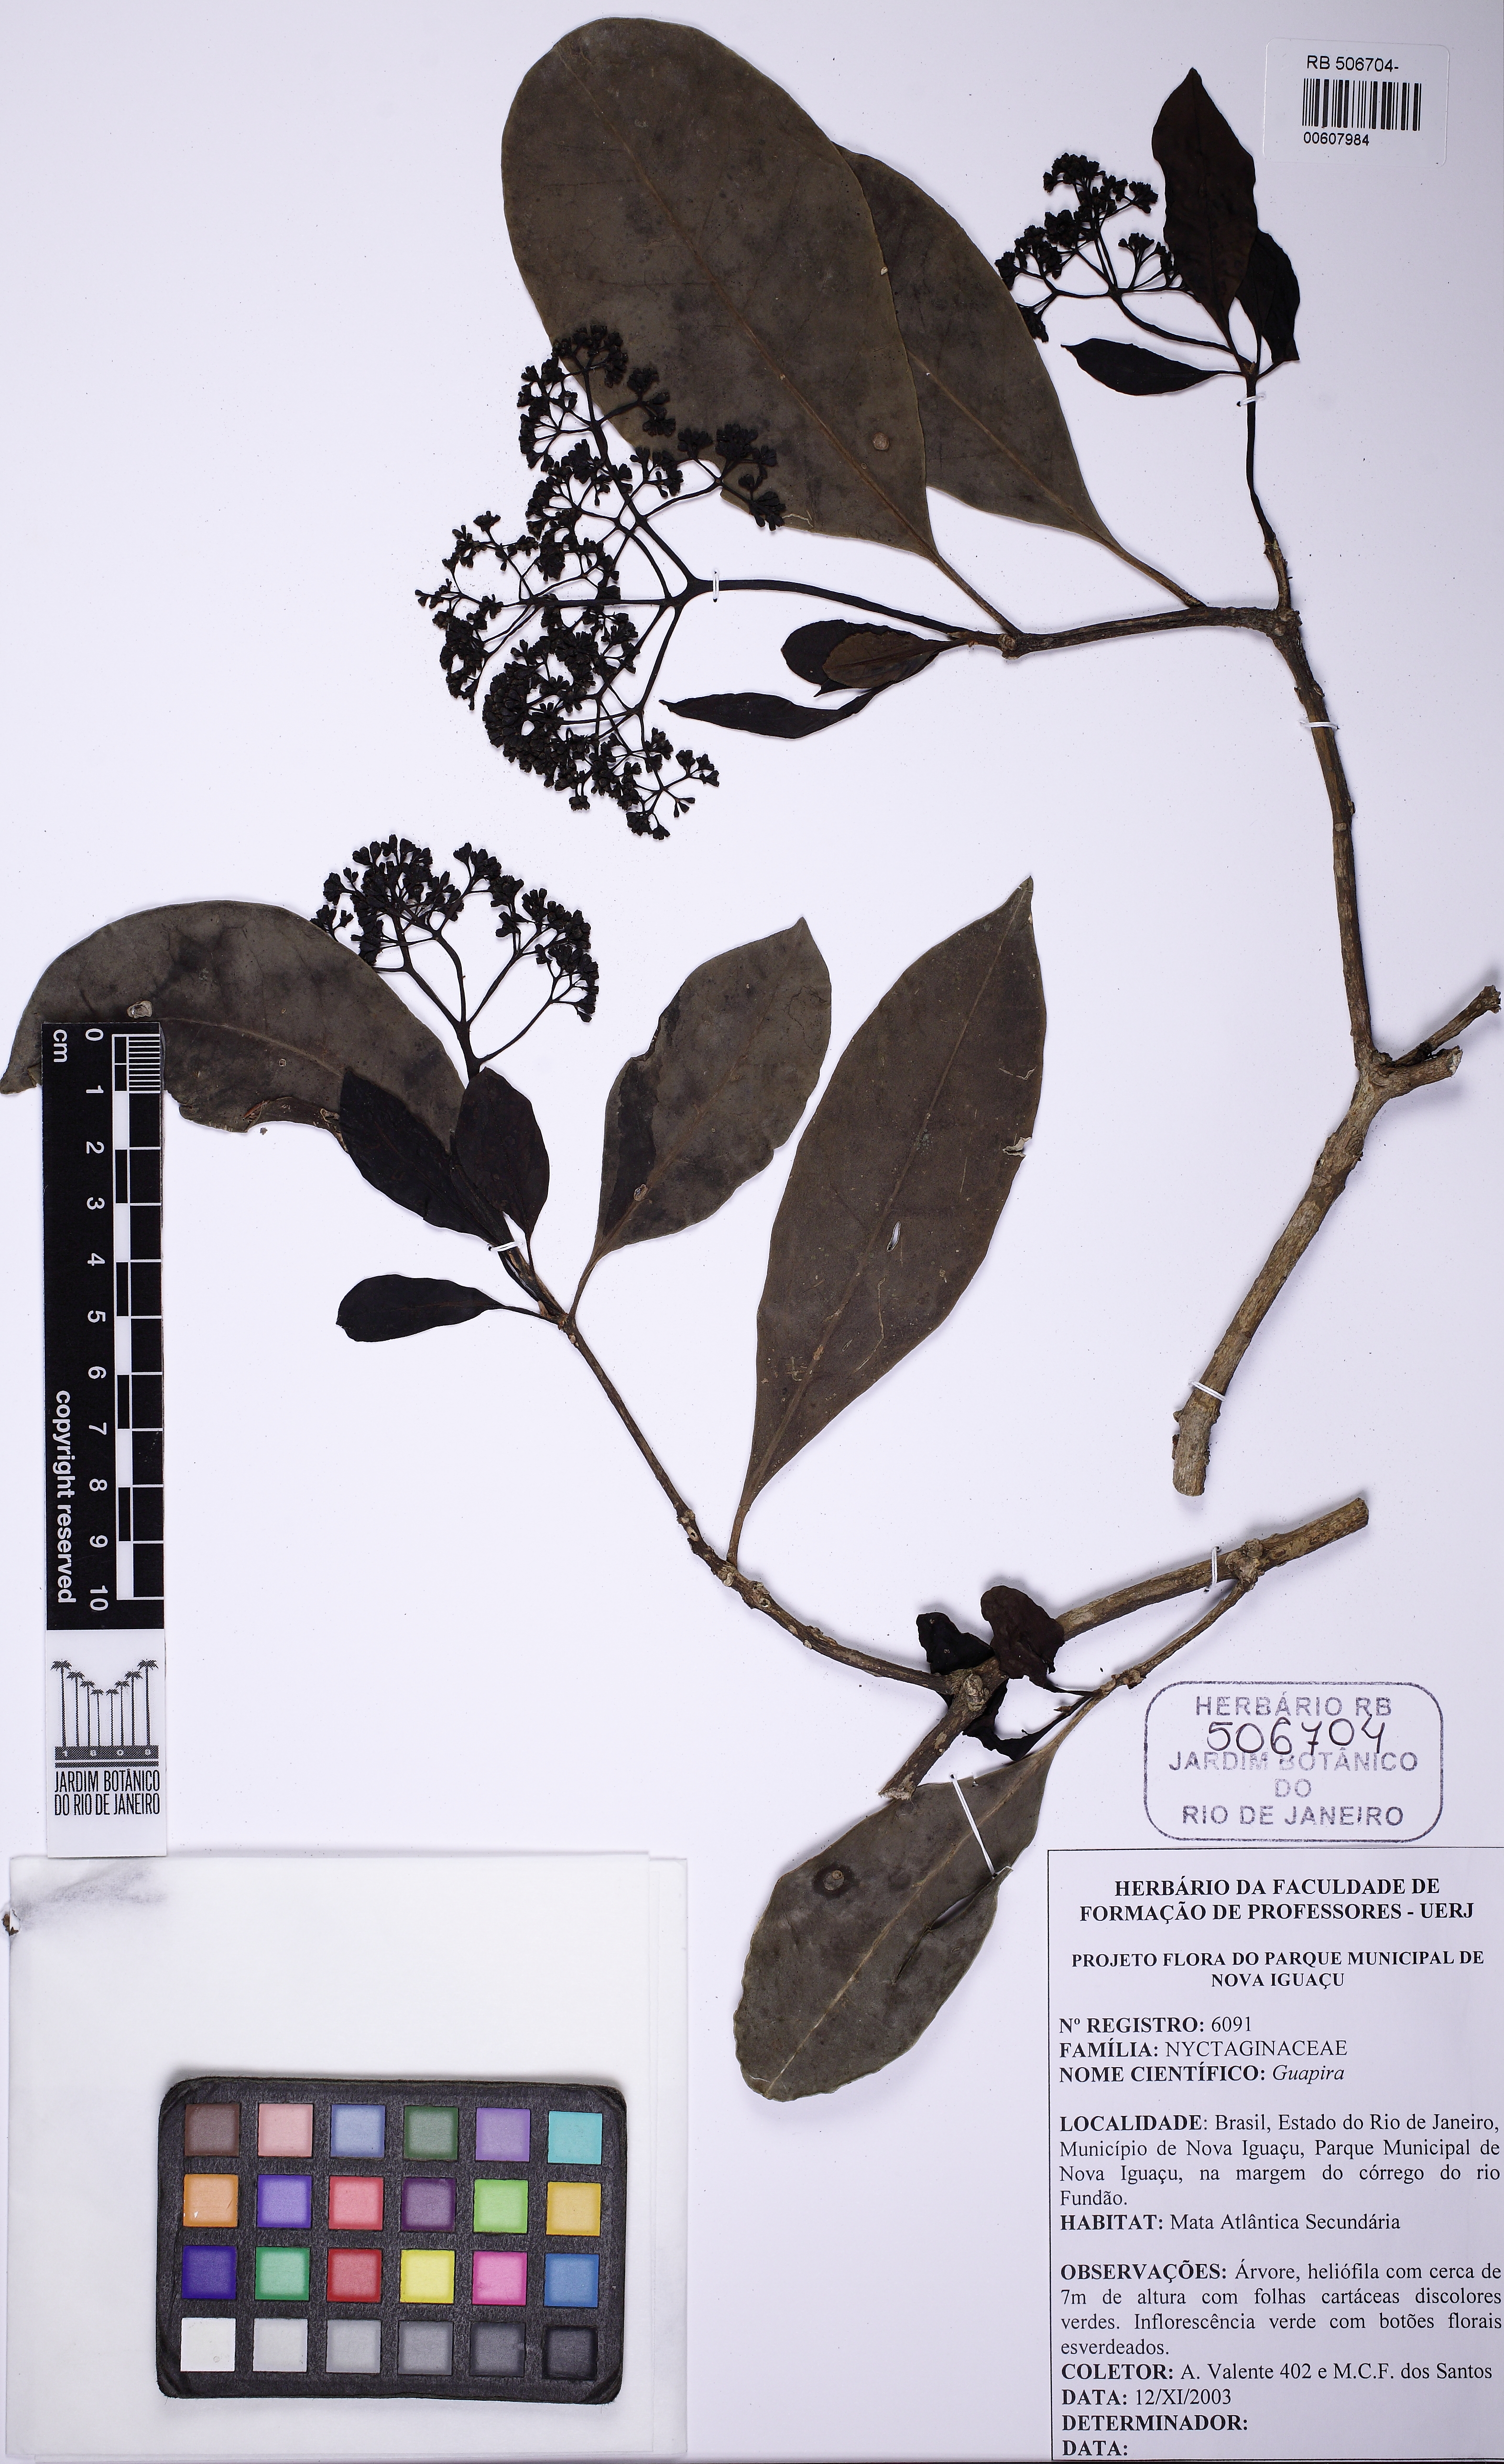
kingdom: Plantae
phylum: Tracheophyta
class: Magnoliopsida
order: Caryophyllales
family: Nyctaginaceae
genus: Guapira
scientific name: Guapira nitida
